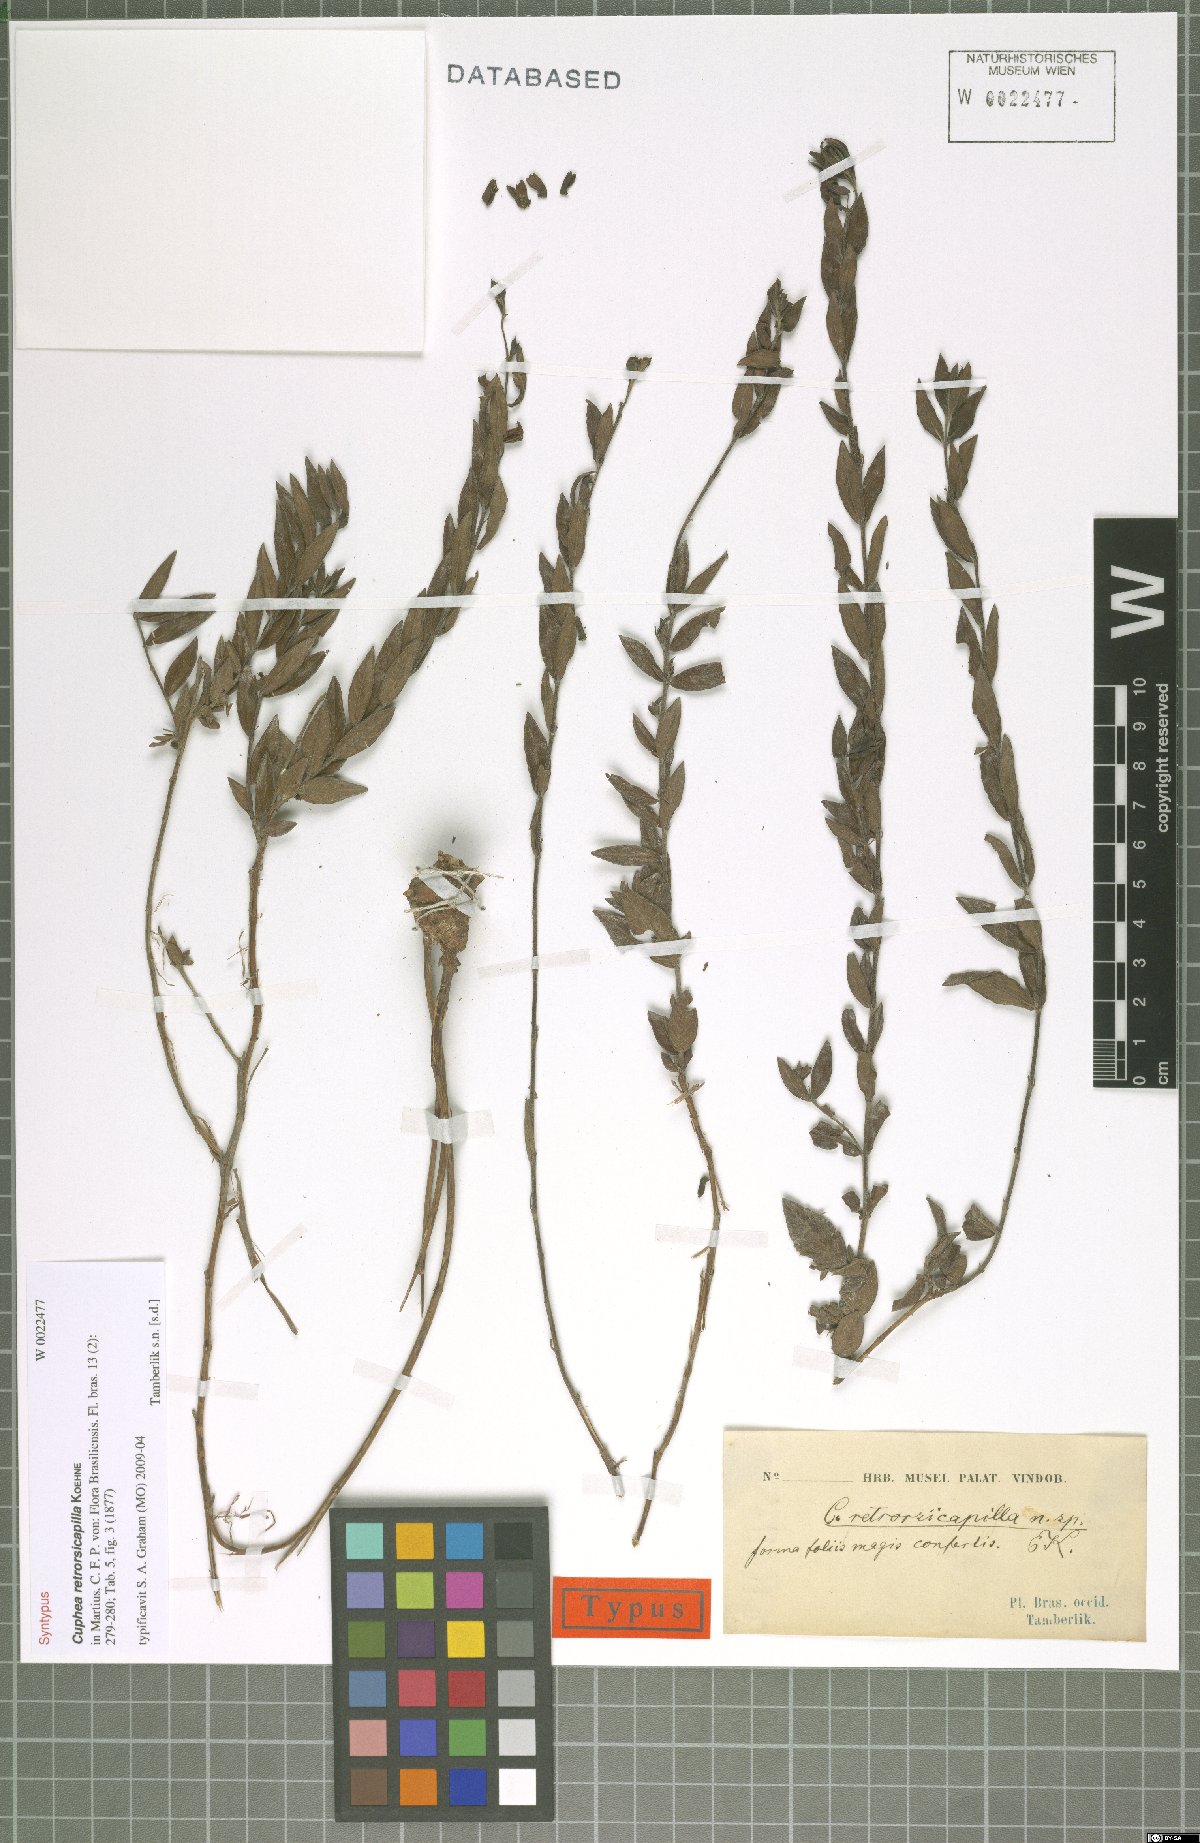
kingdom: Plantae
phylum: Tracheophyta
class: Magnoliopsida
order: Myrtales
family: Lythraceae
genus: Cuphea
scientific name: Cuphea retrorsicapilla
